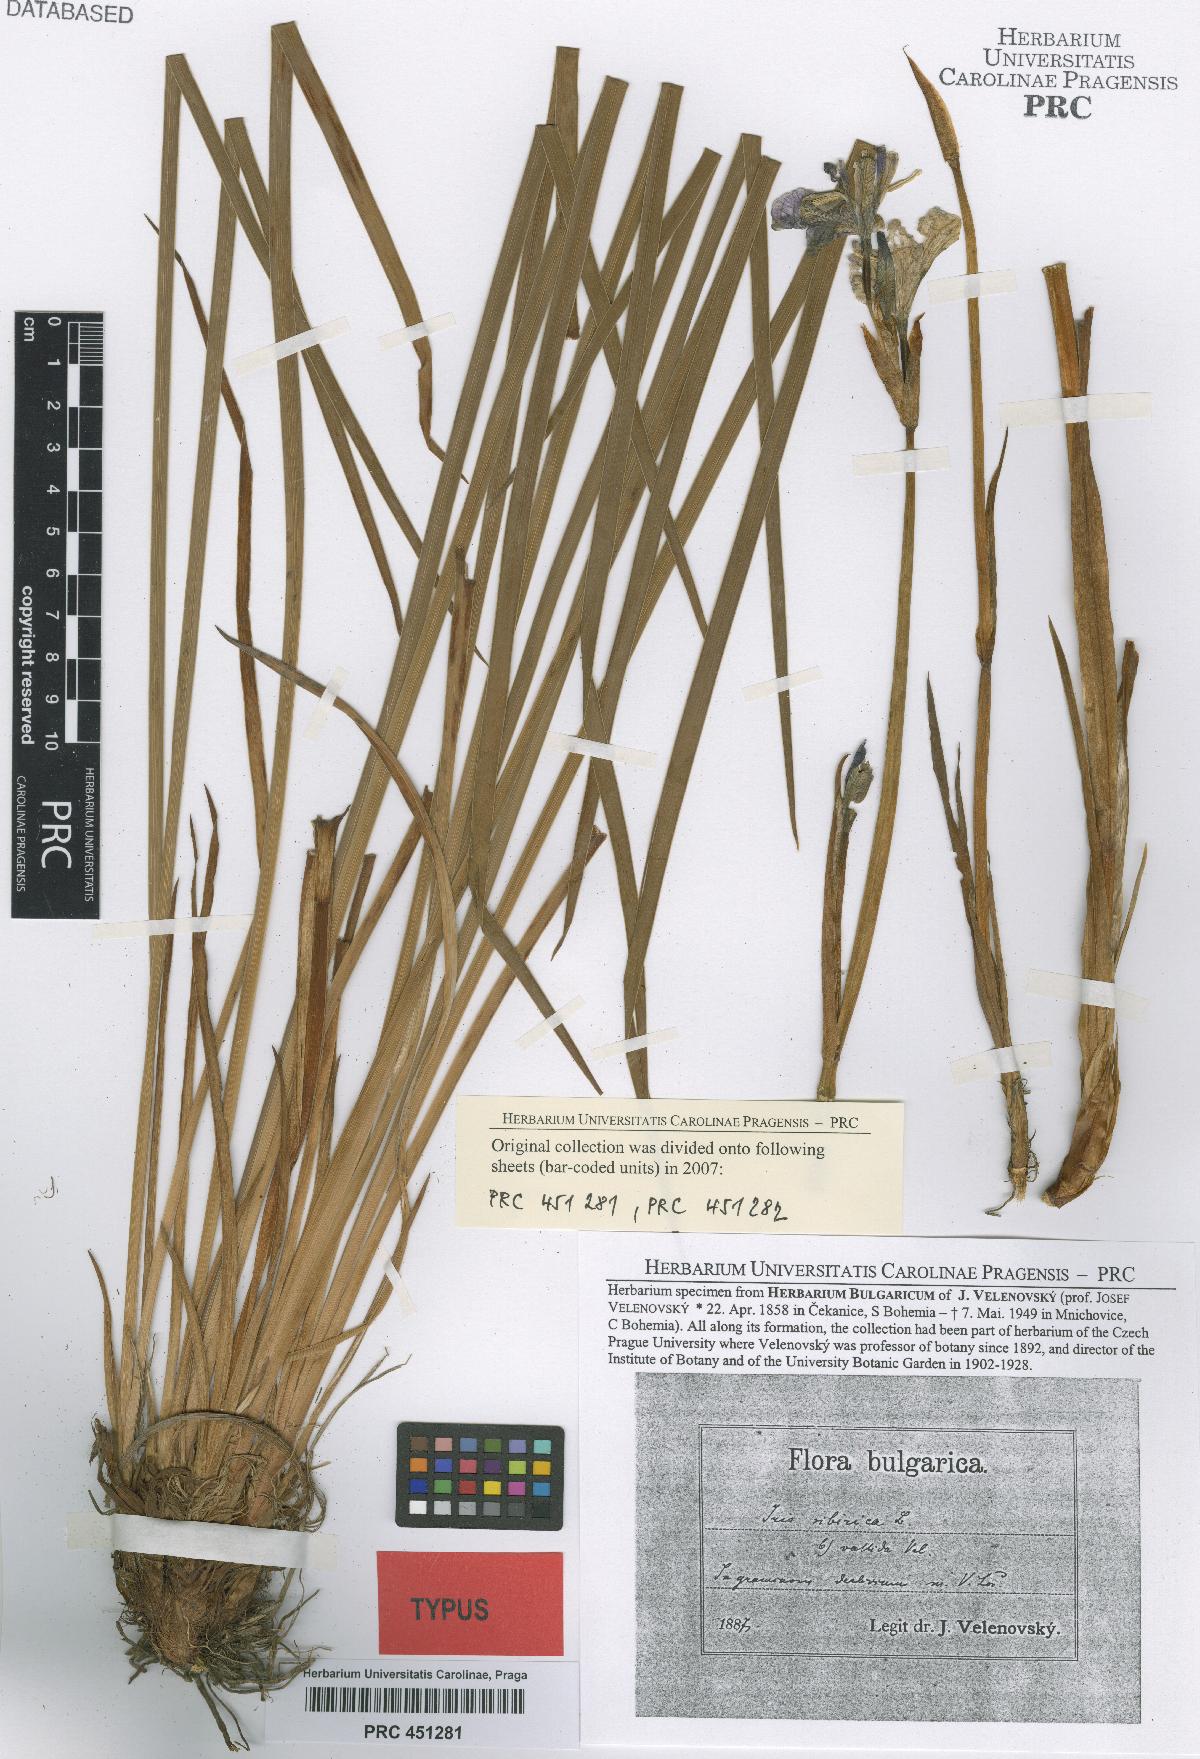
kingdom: Plantae
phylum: Tracheophyta
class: Liliopsida
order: Asparagales
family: Iridaceae
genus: Iris
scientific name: Iris sibirica
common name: Siberian iris
